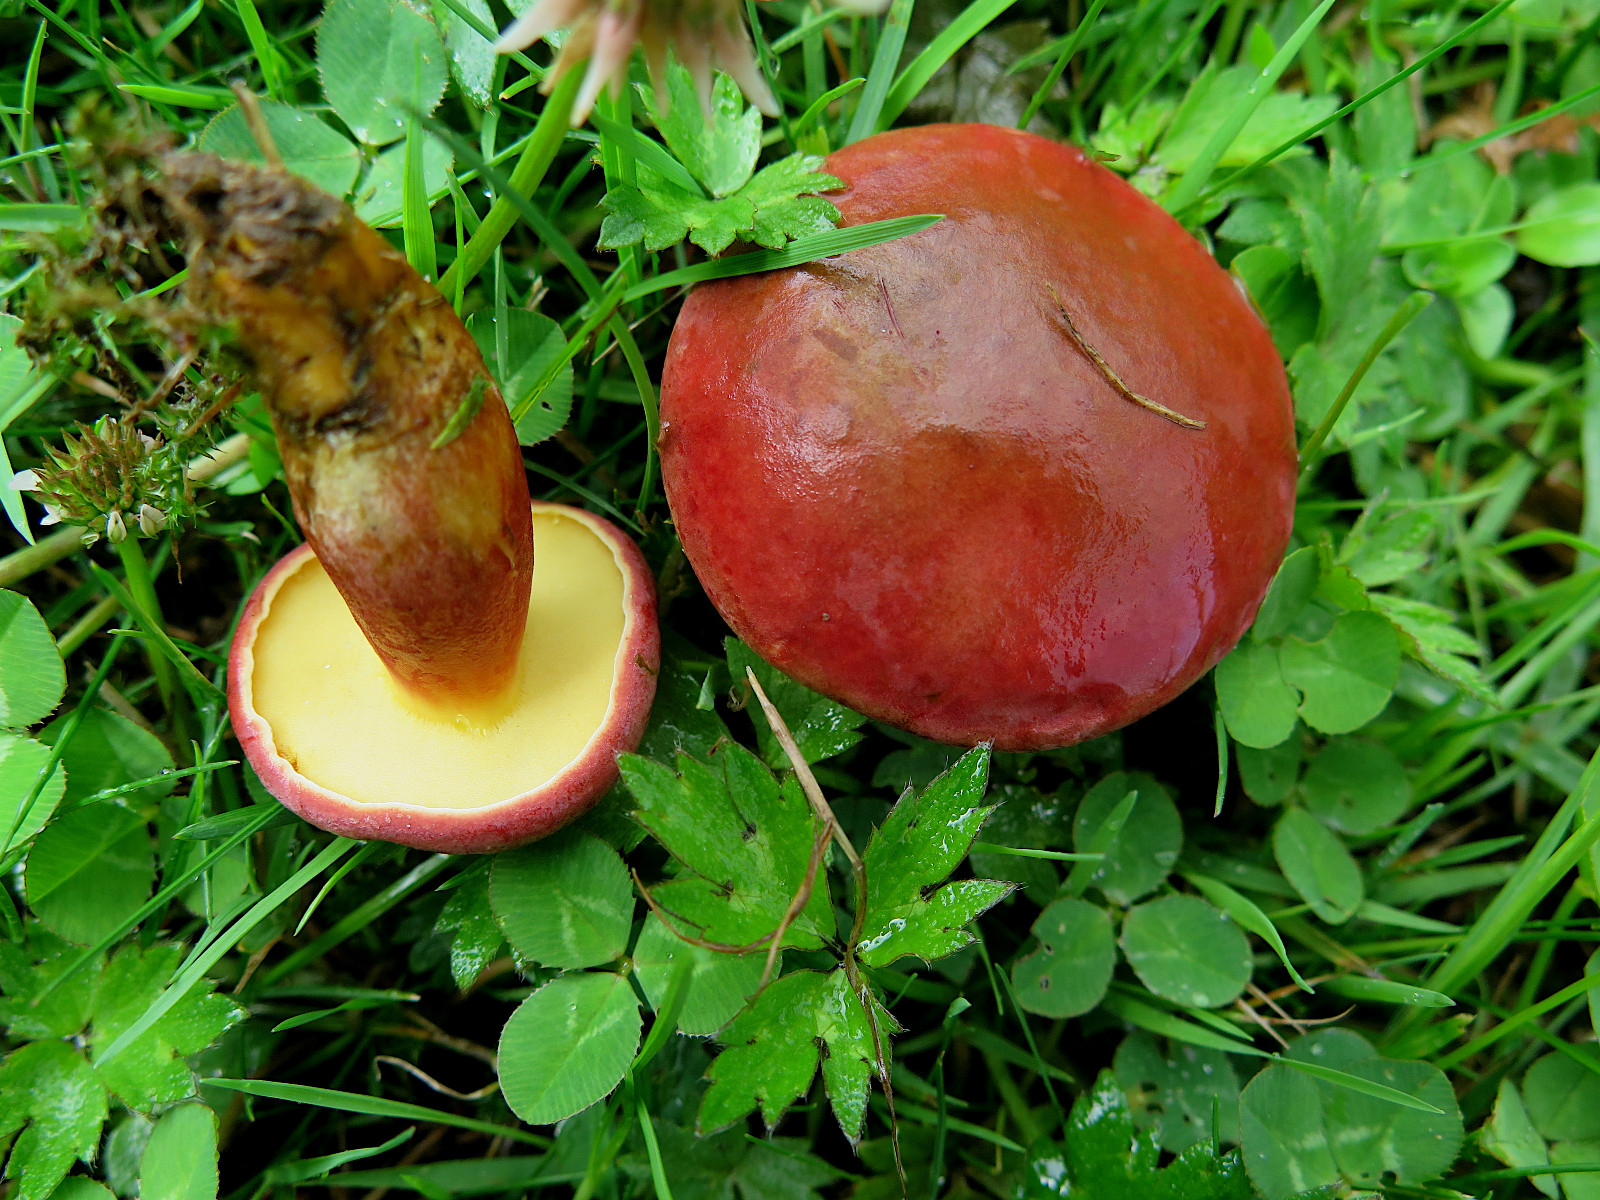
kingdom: Fungi
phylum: Basidiomycota
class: Agaricomycetes
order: Boletales
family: Boletaceae
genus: Hortiboletus
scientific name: Hortiboletus rubellus
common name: blodrød rørhat
